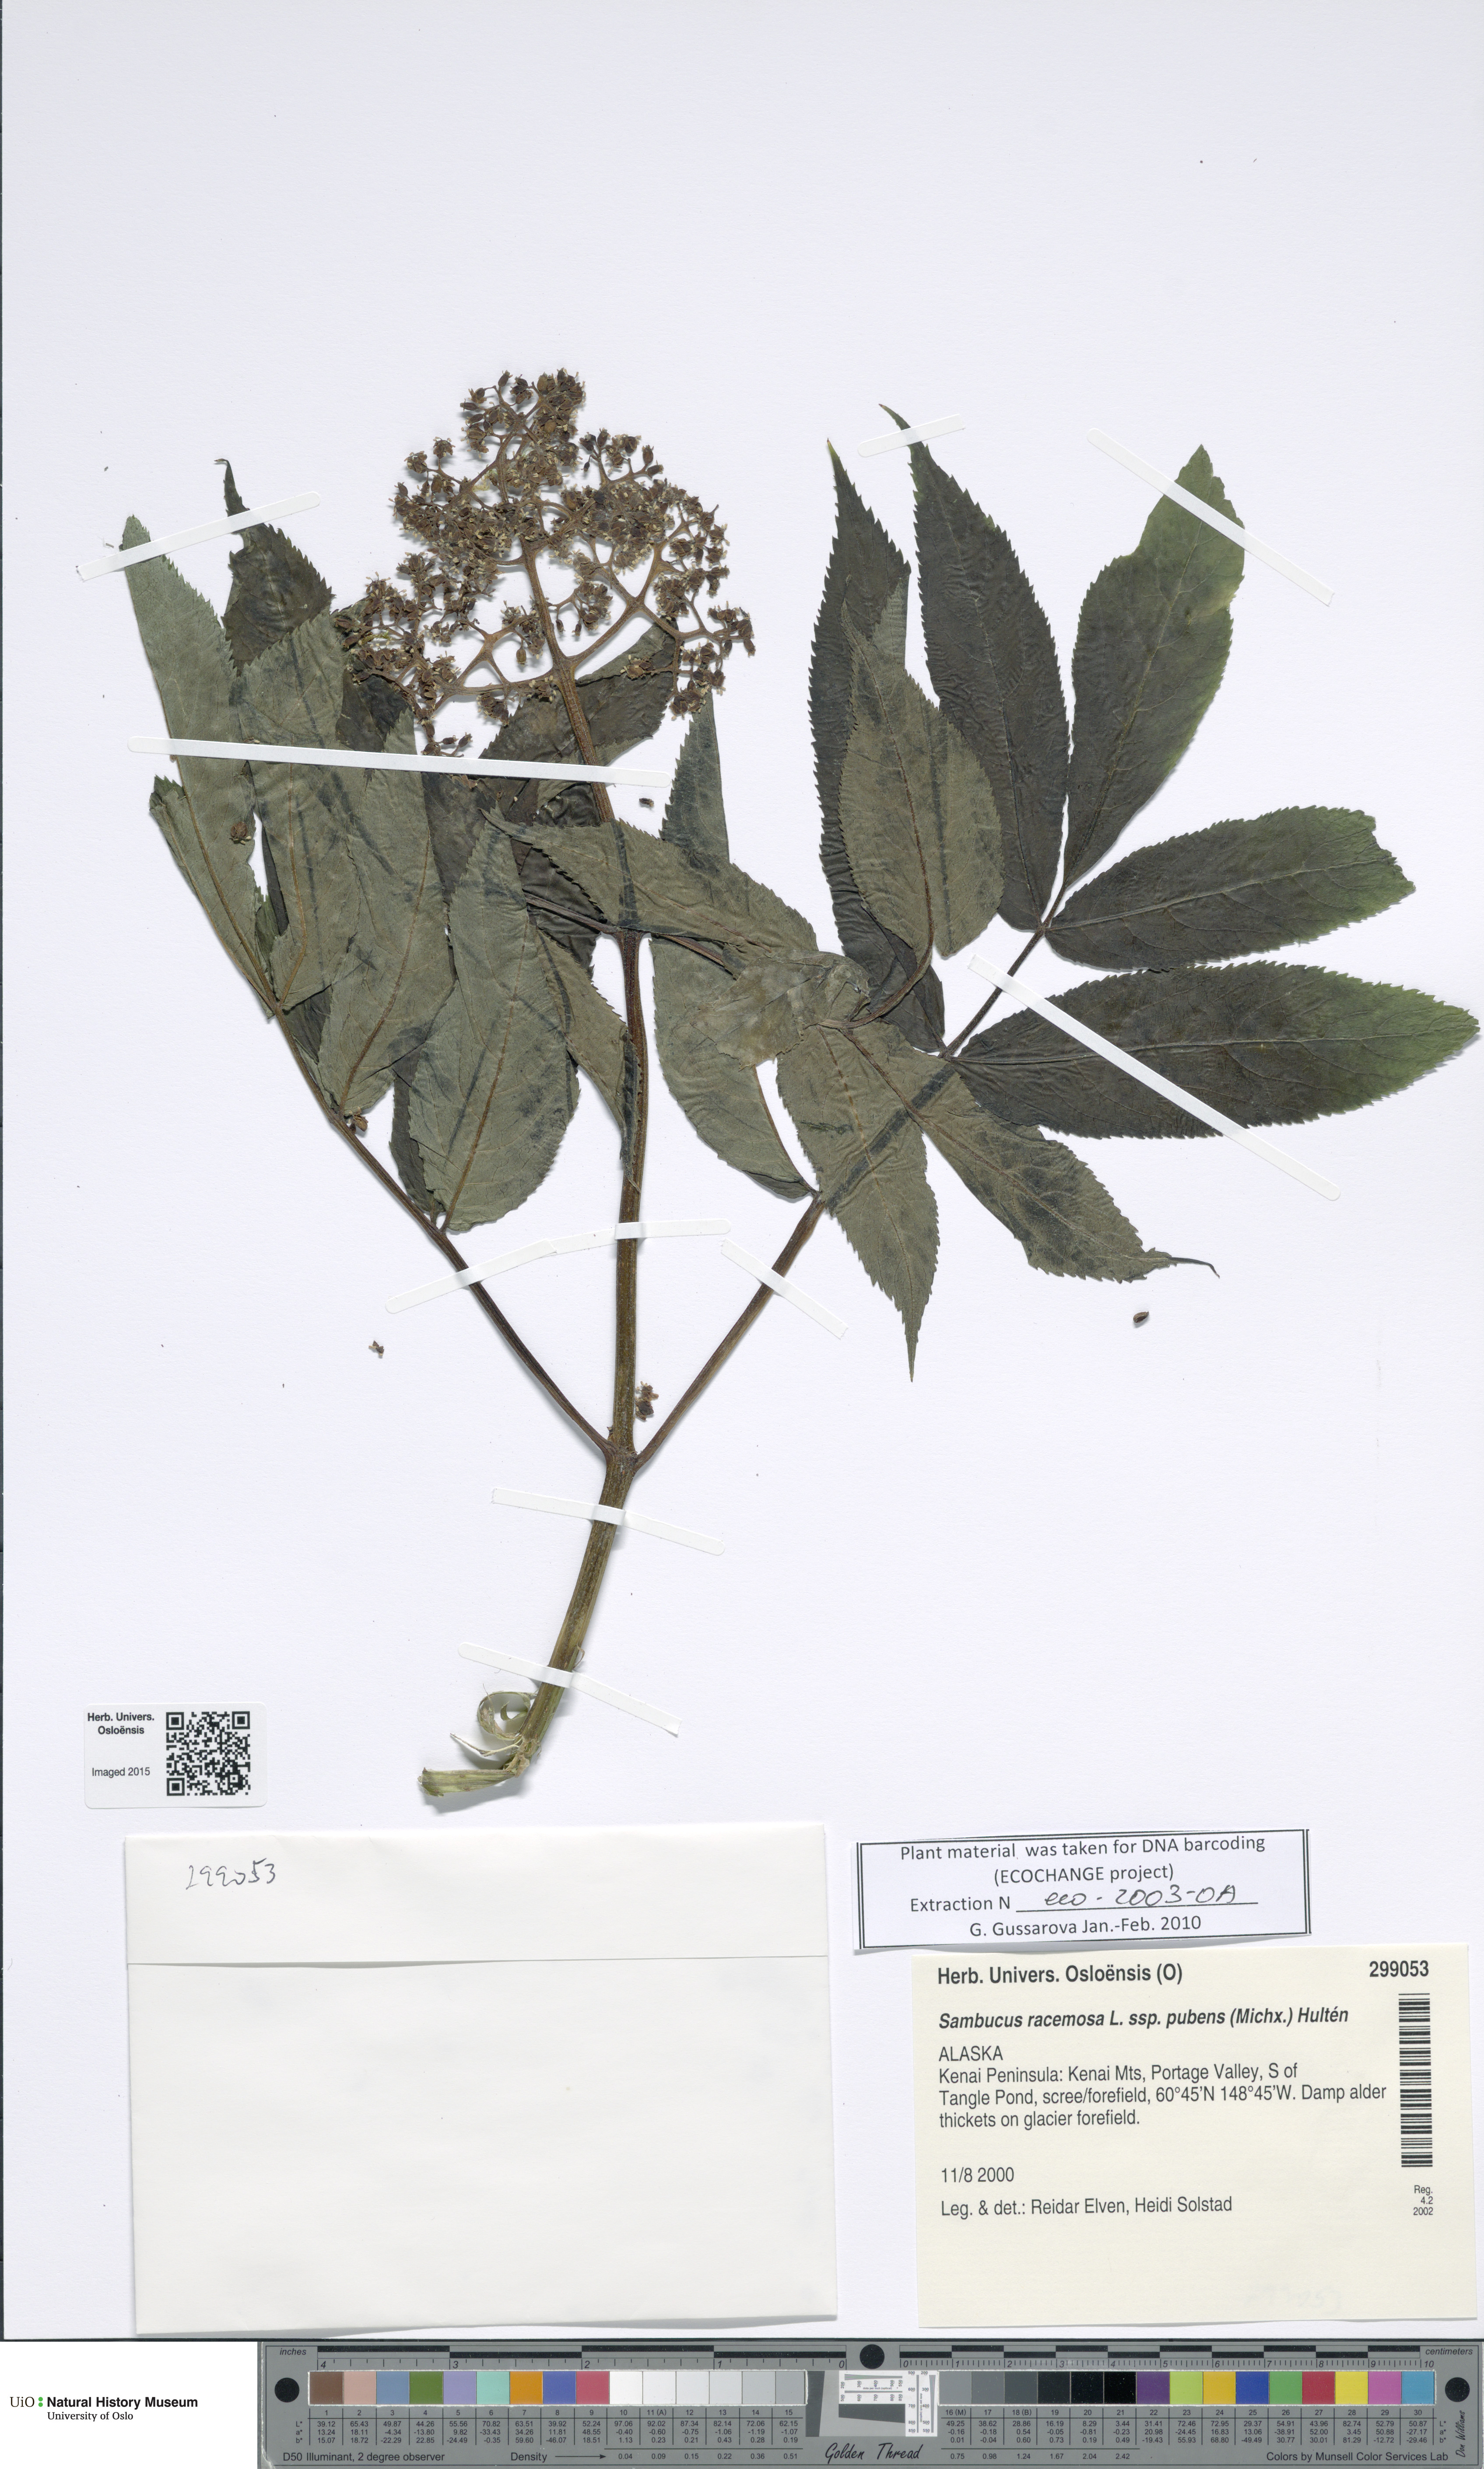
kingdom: Plantae
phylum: Tracheophyta
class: Magnoliopsida
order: Dipsacales
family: Viburnaceae
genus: Sambucus
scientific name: Sambucus racemosa
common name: Red-berried elder
